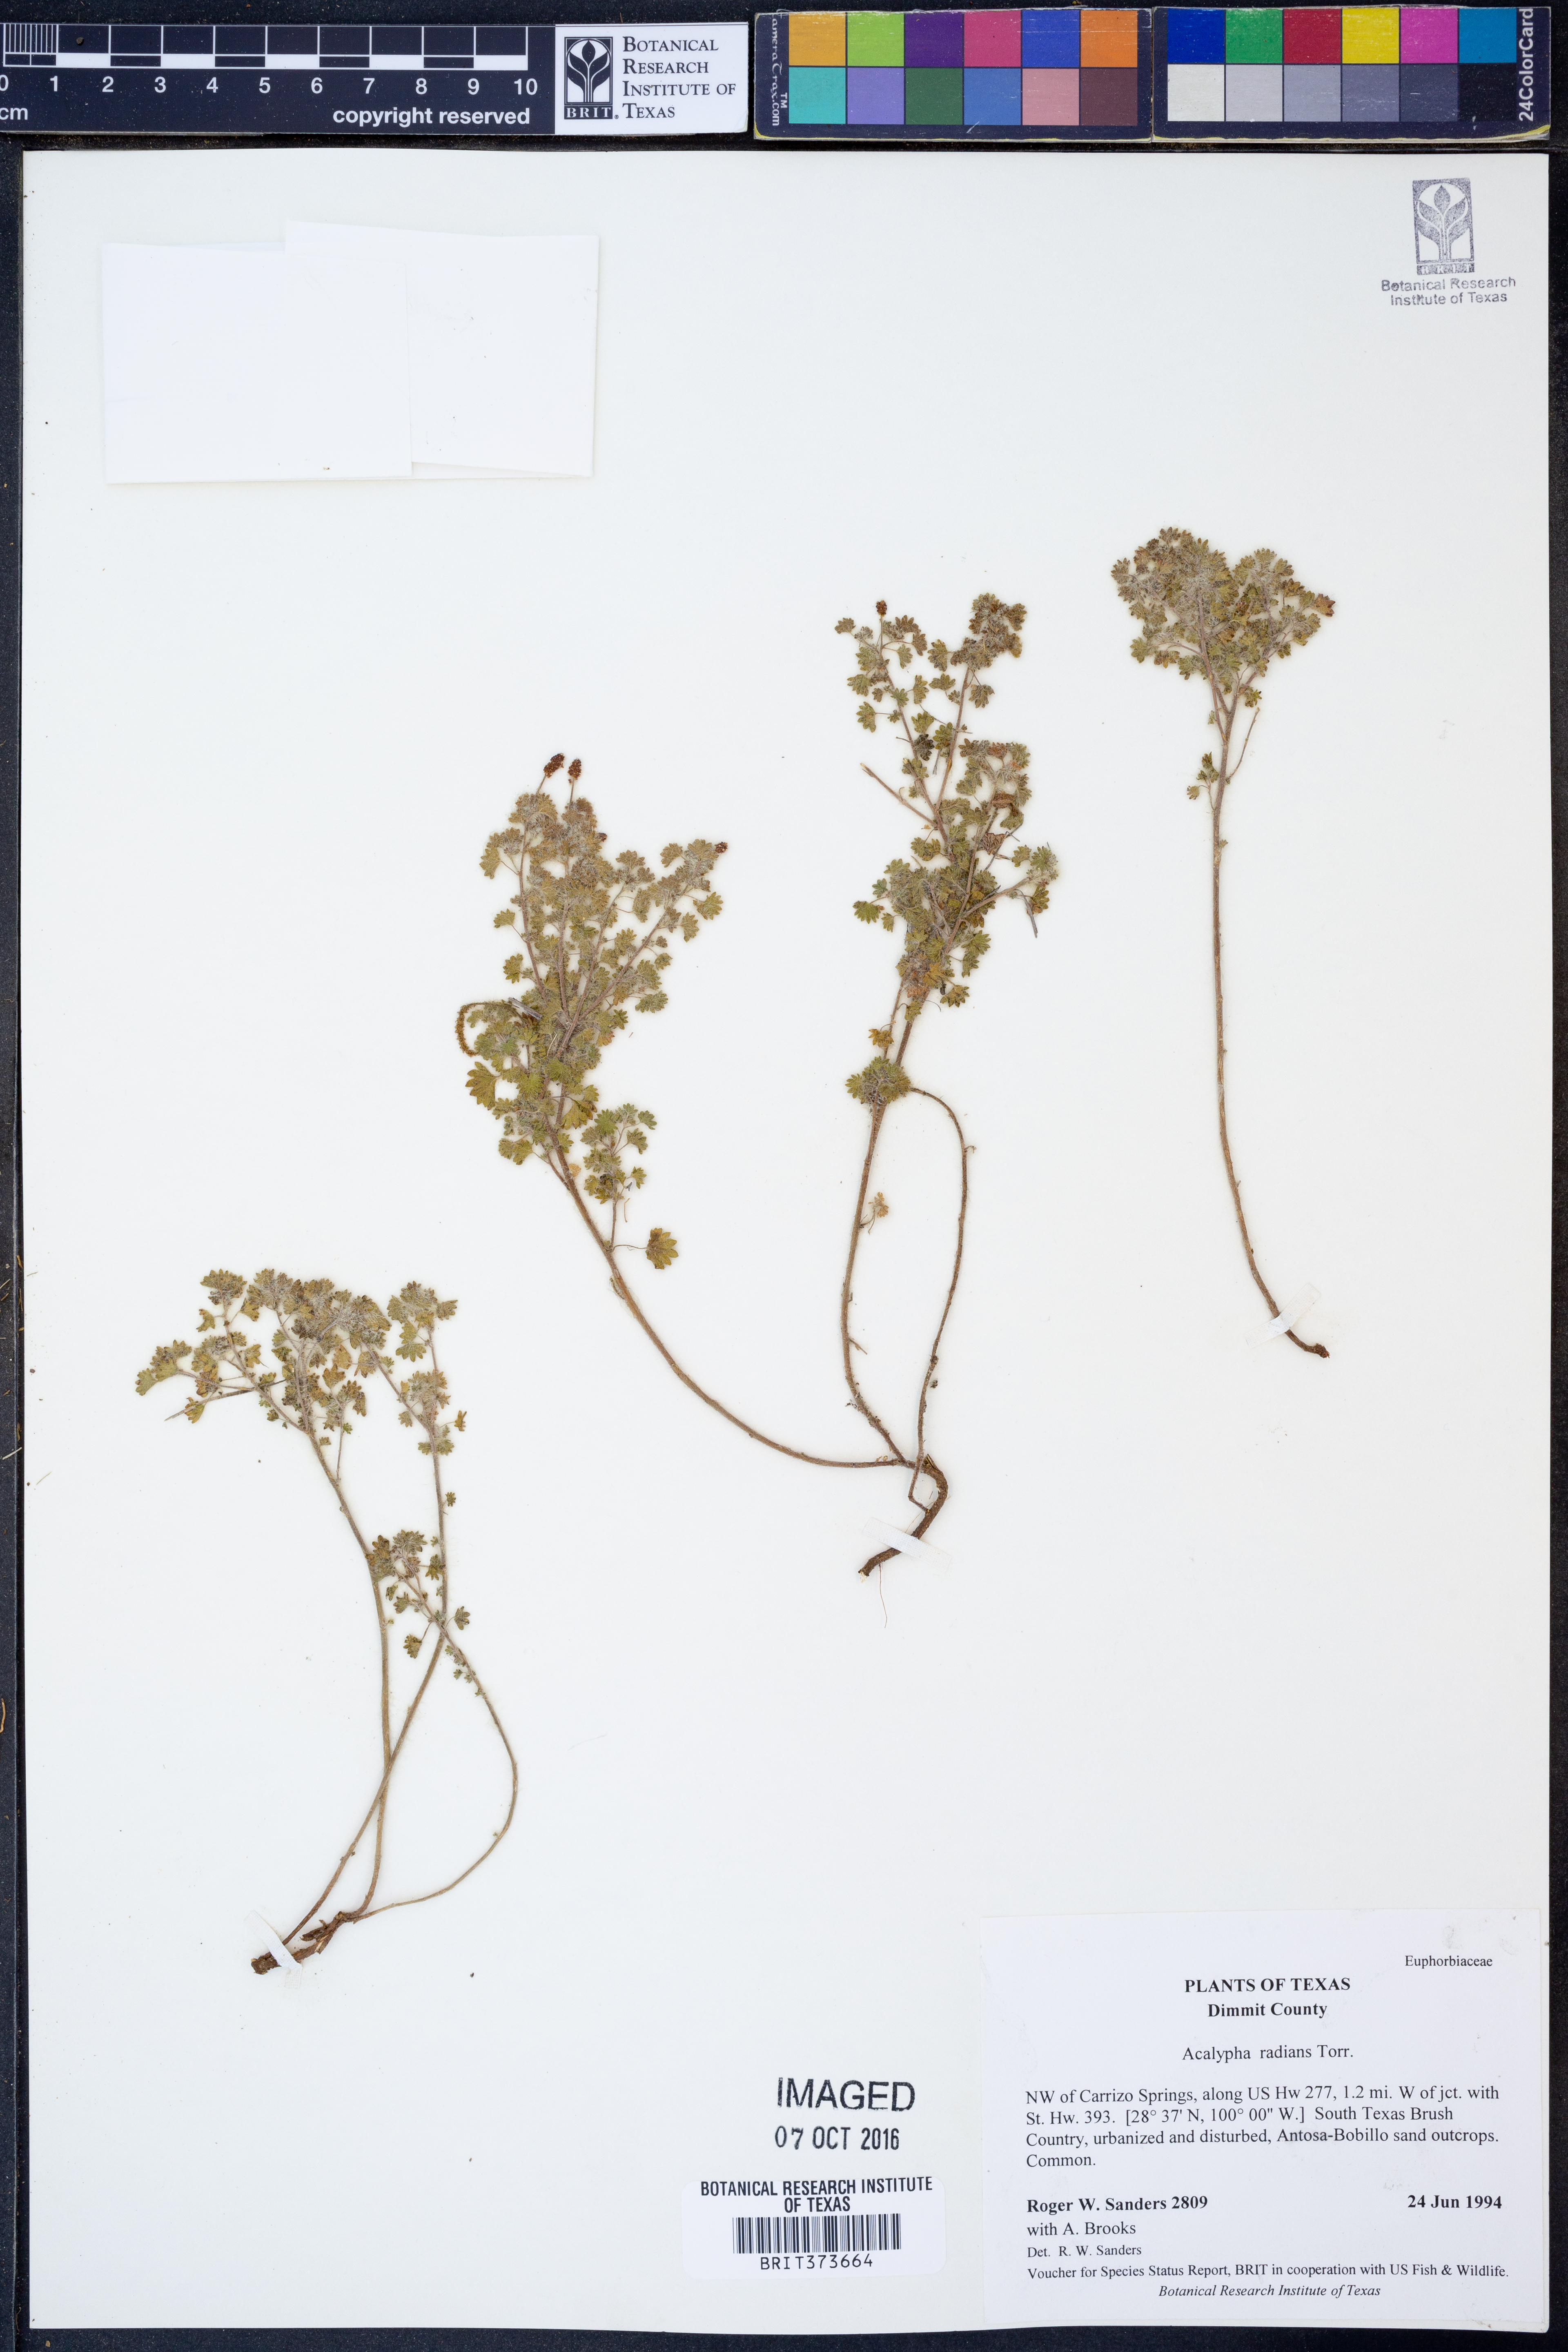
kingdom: Plantae
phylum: Tracheophyta
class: Magnoliopsida
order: Malpighiales
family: Euphorbiaceae
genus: Acalypha
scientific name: Acalypha radians
